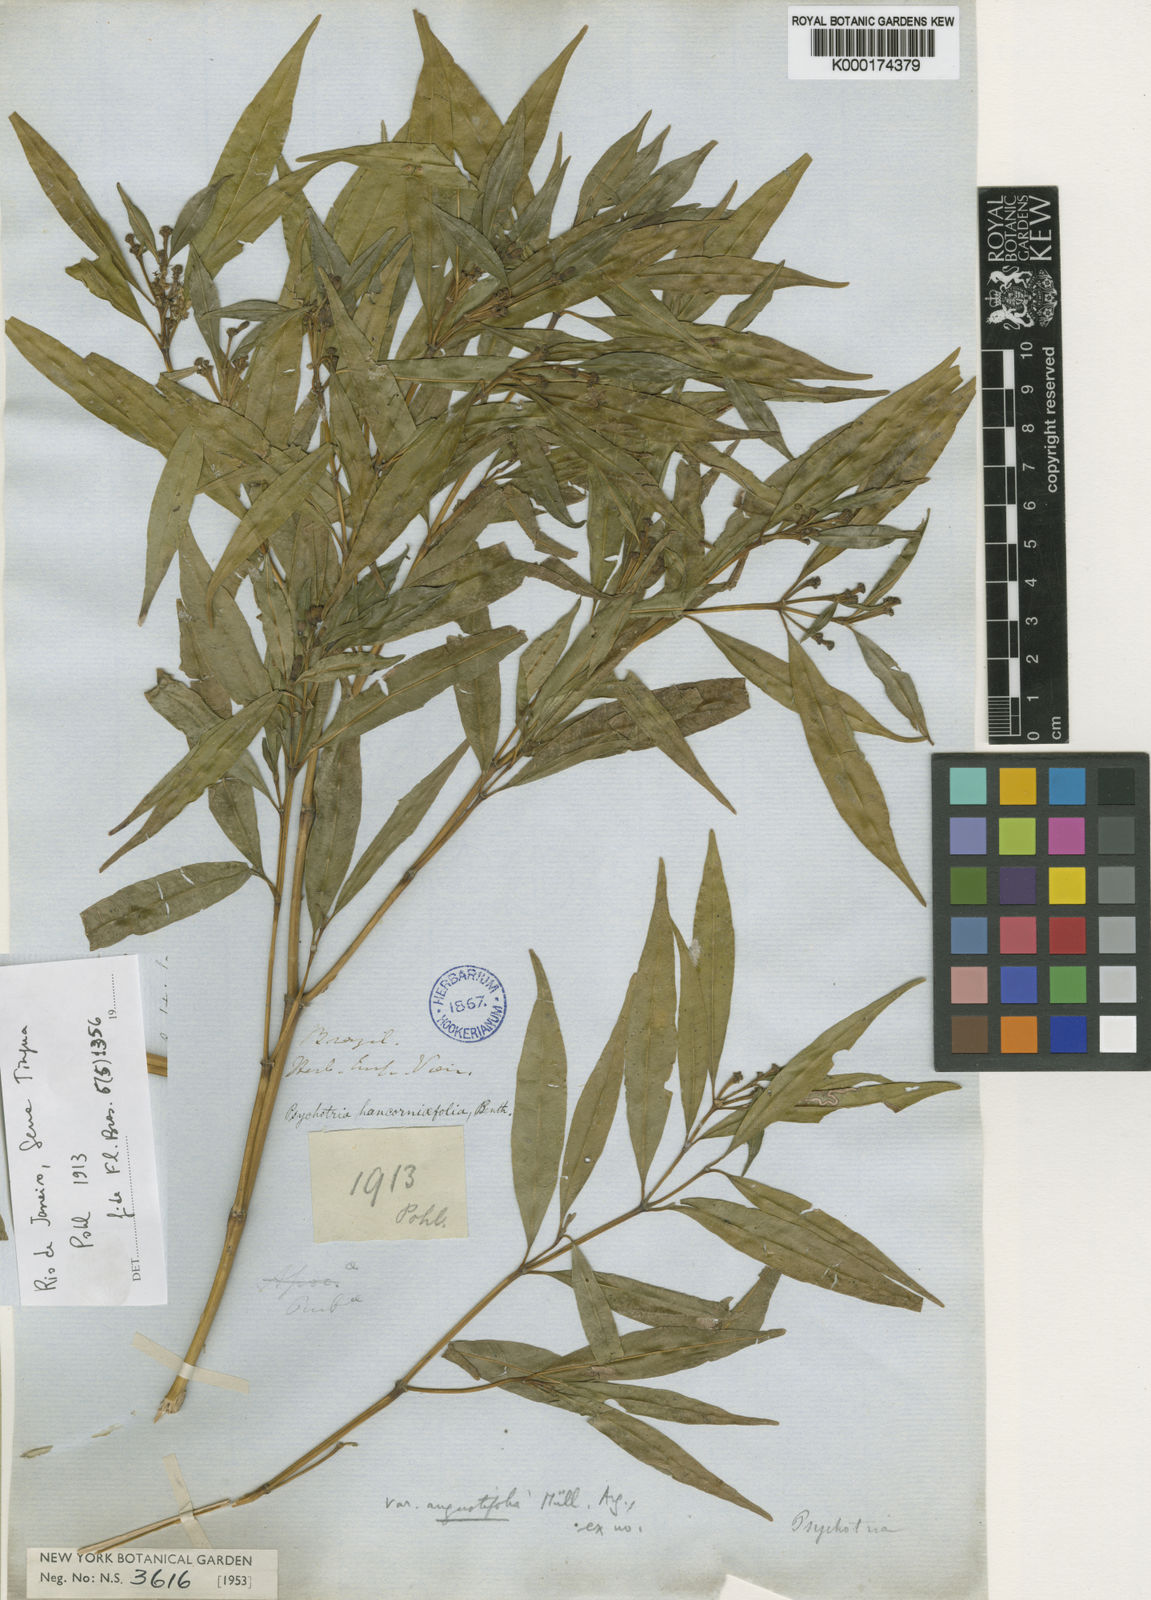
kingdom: Plantae
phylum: Tracheophyta
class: Magnoliopsida
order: Gentianales
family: Rubiaceae
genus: Palicourea
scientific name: Palicourea sessilis
